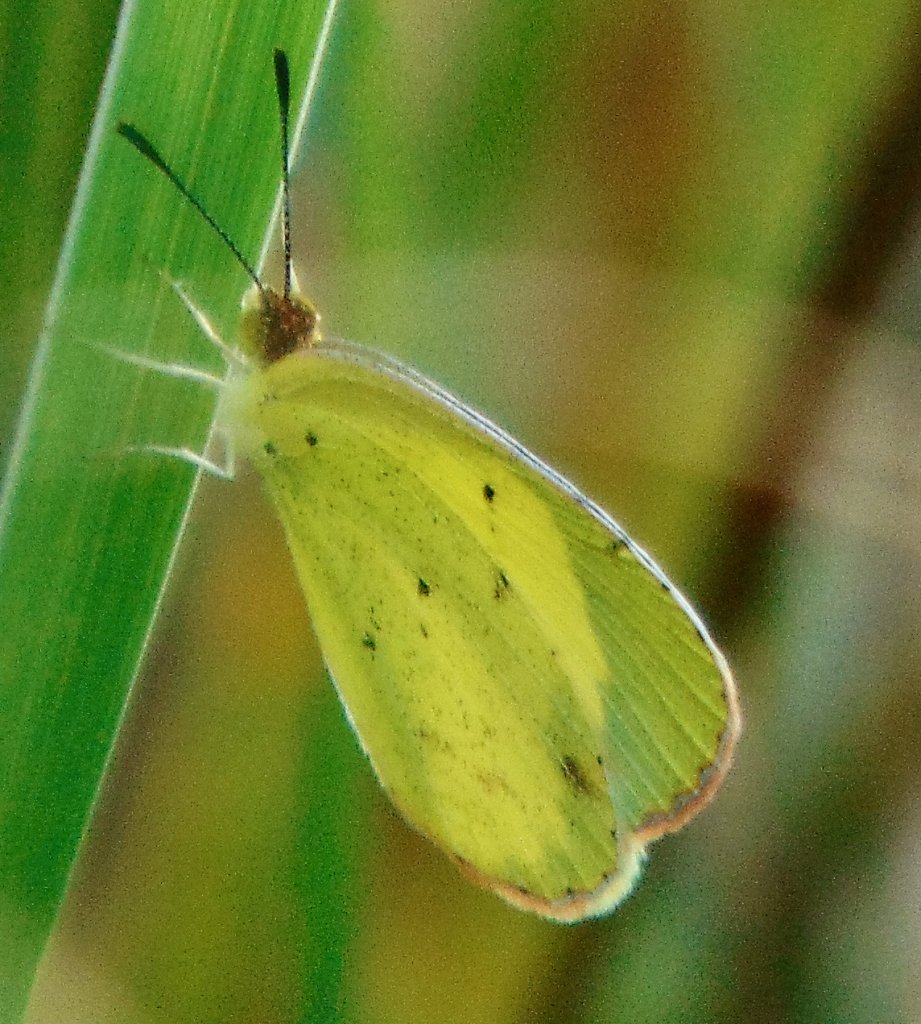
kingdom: Animalia
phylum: Arthropoda
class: Insecta
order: Lepidoptera
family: Pieridae
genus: Pyrisitia
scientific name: Pyrisitia lisa
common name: Little Yellow
